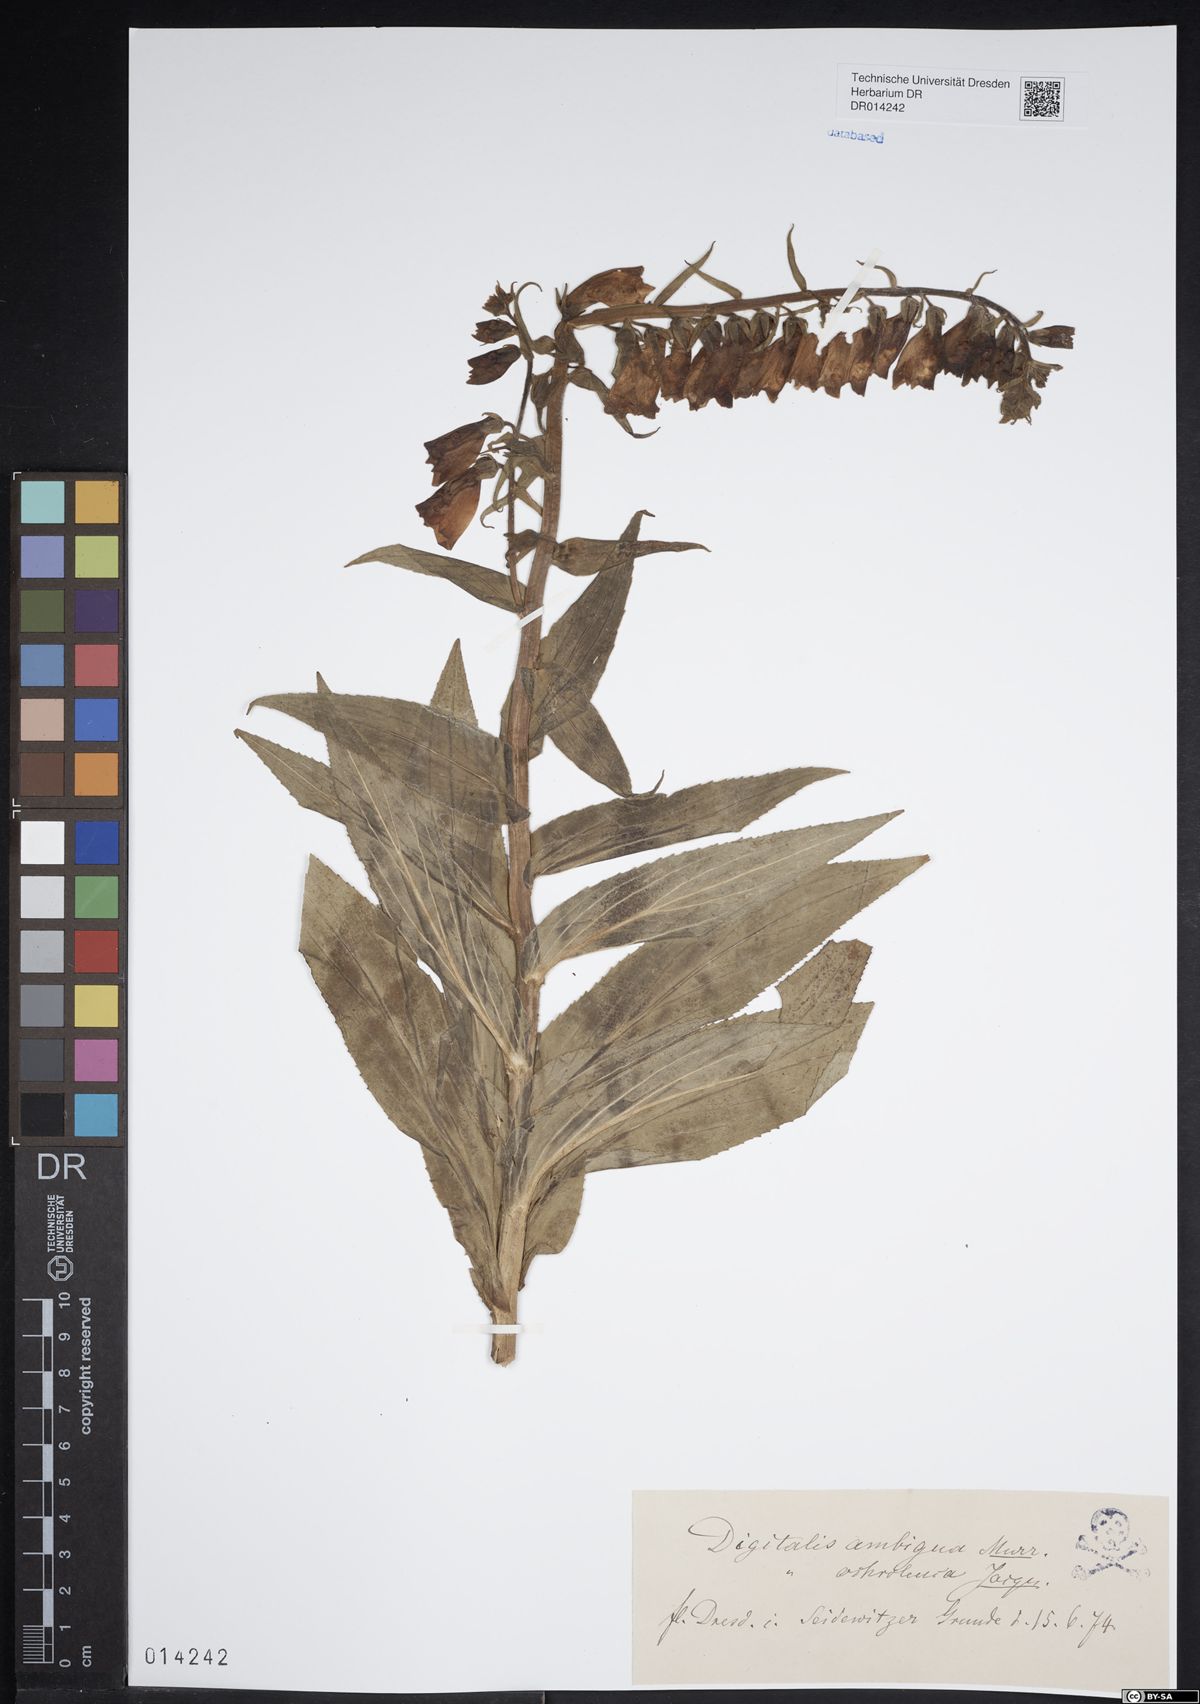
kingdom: Plantae
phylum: Tracheophyta
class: Magnoliopsida
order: Lamiales
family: Plantaginaceae
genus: Digitalis
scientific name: Digitalis grandiflora
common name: Yellow foxglove
